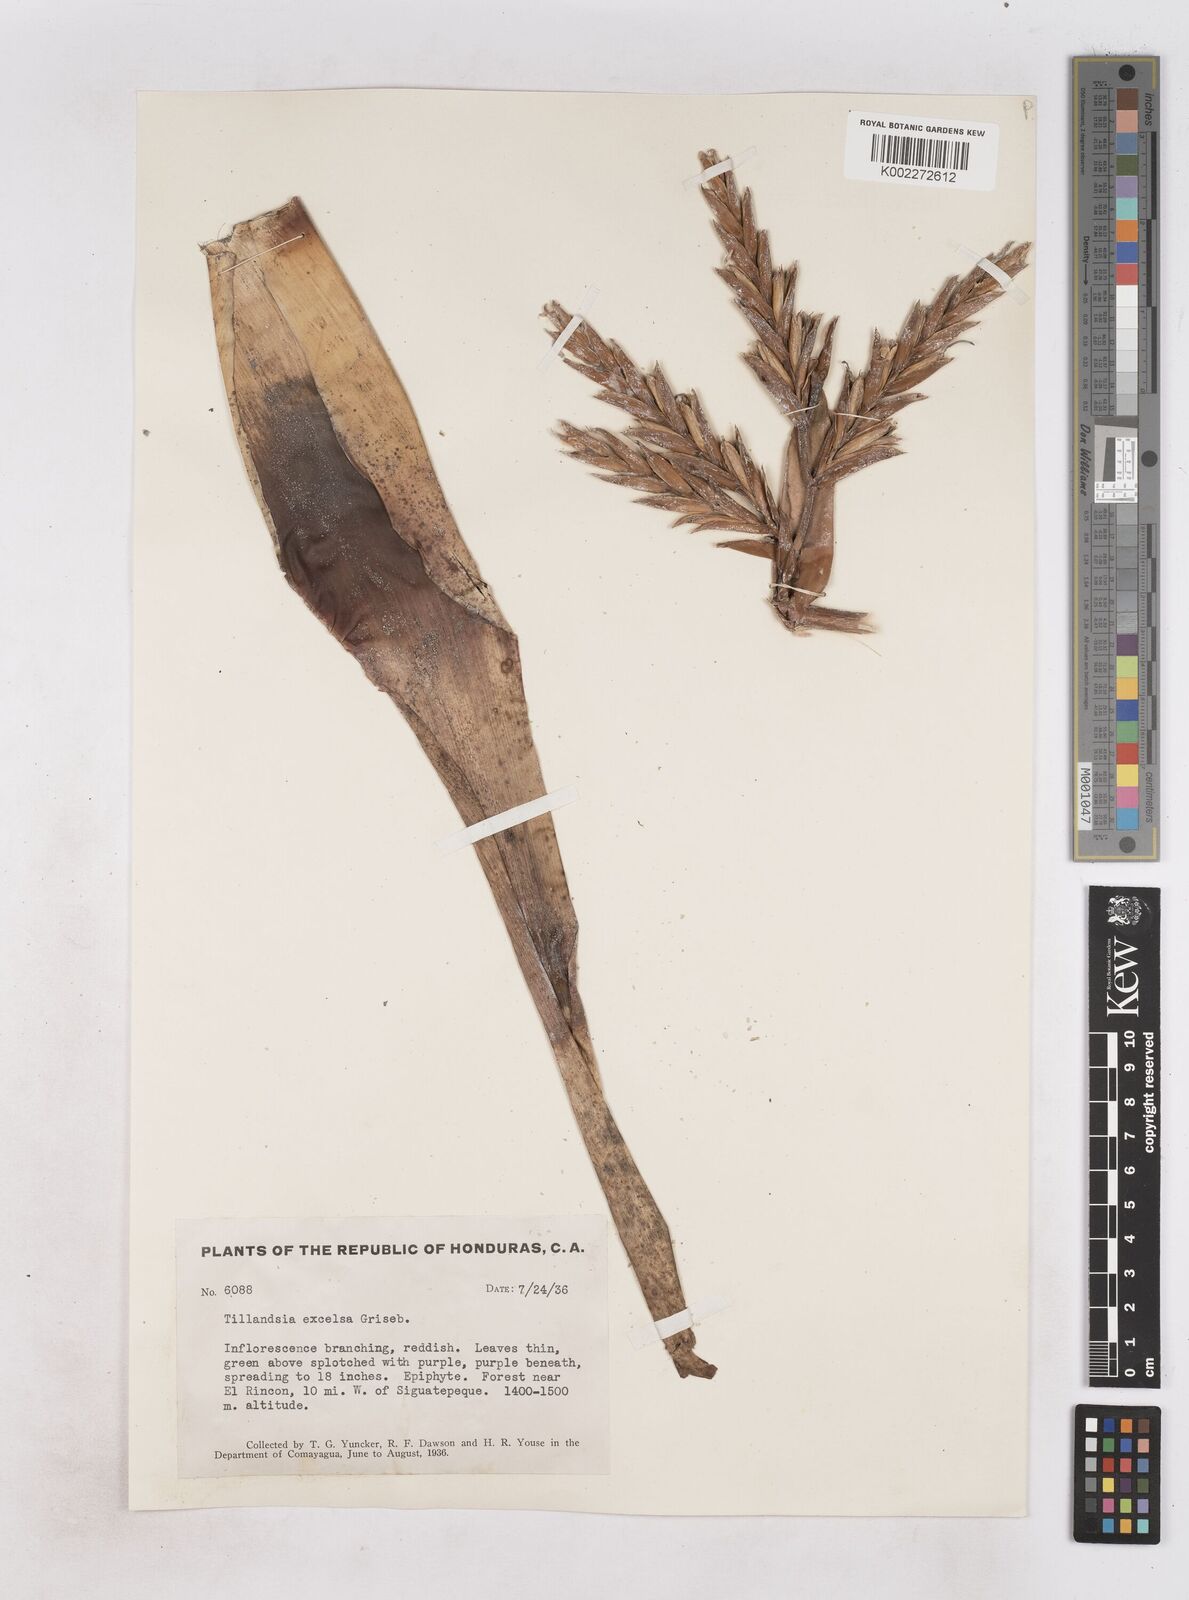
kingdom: Plantae
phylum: Tracheophyta
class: Liliopsida
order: Poales
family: Bromeliaceae
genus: Tillandsia
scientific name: Tillandsia excelsa
